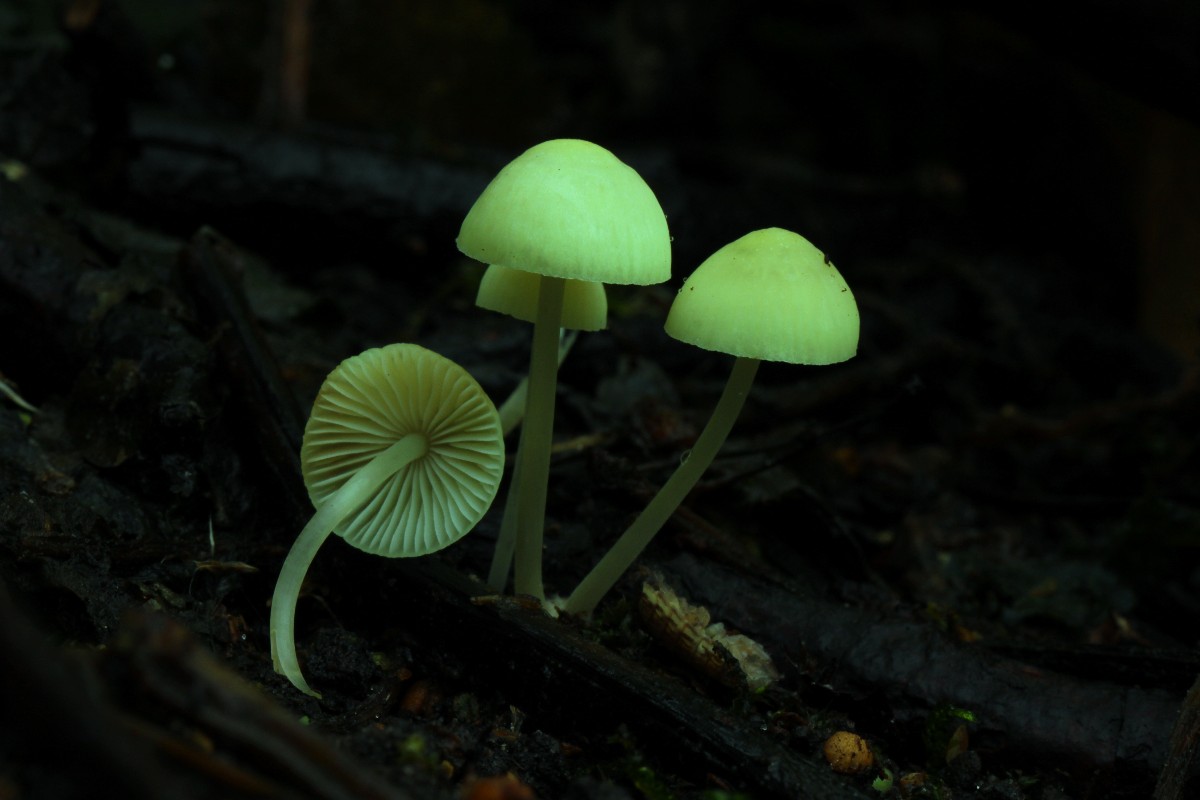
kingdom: Fungi
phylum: Basidiomycota
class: Agaricomycetes
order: Agaricales
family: Mycenaceae
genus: Mycena
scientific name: Mycena arcangeliana
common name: oliven-huesvamp
